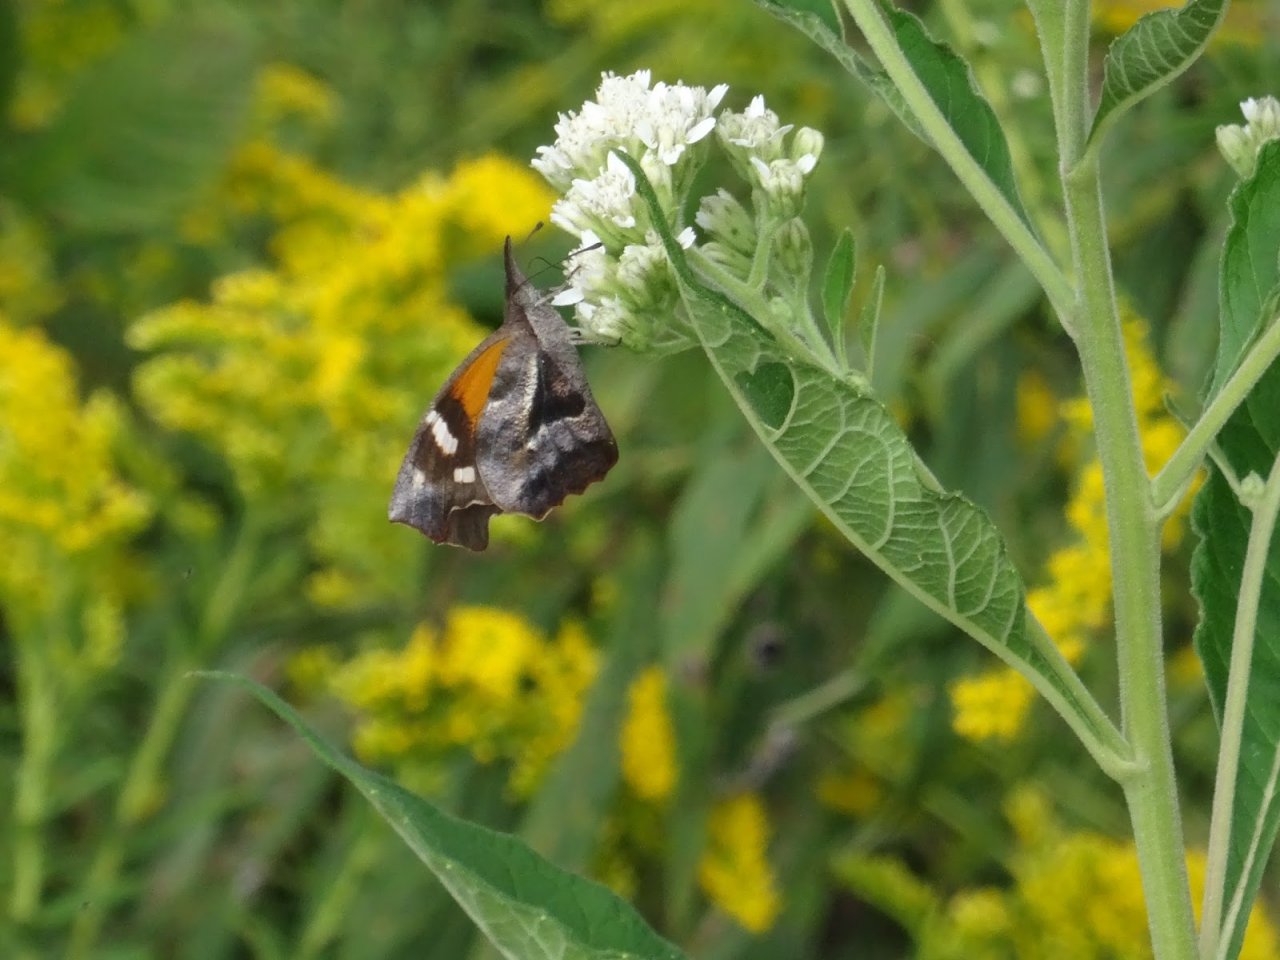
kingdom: Animalia
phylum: Arthropoda
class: Insecta
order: Lepidoptera
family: Nymphalidae
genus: Libytheana
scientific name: Libytheana carinenta
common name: American Snout
